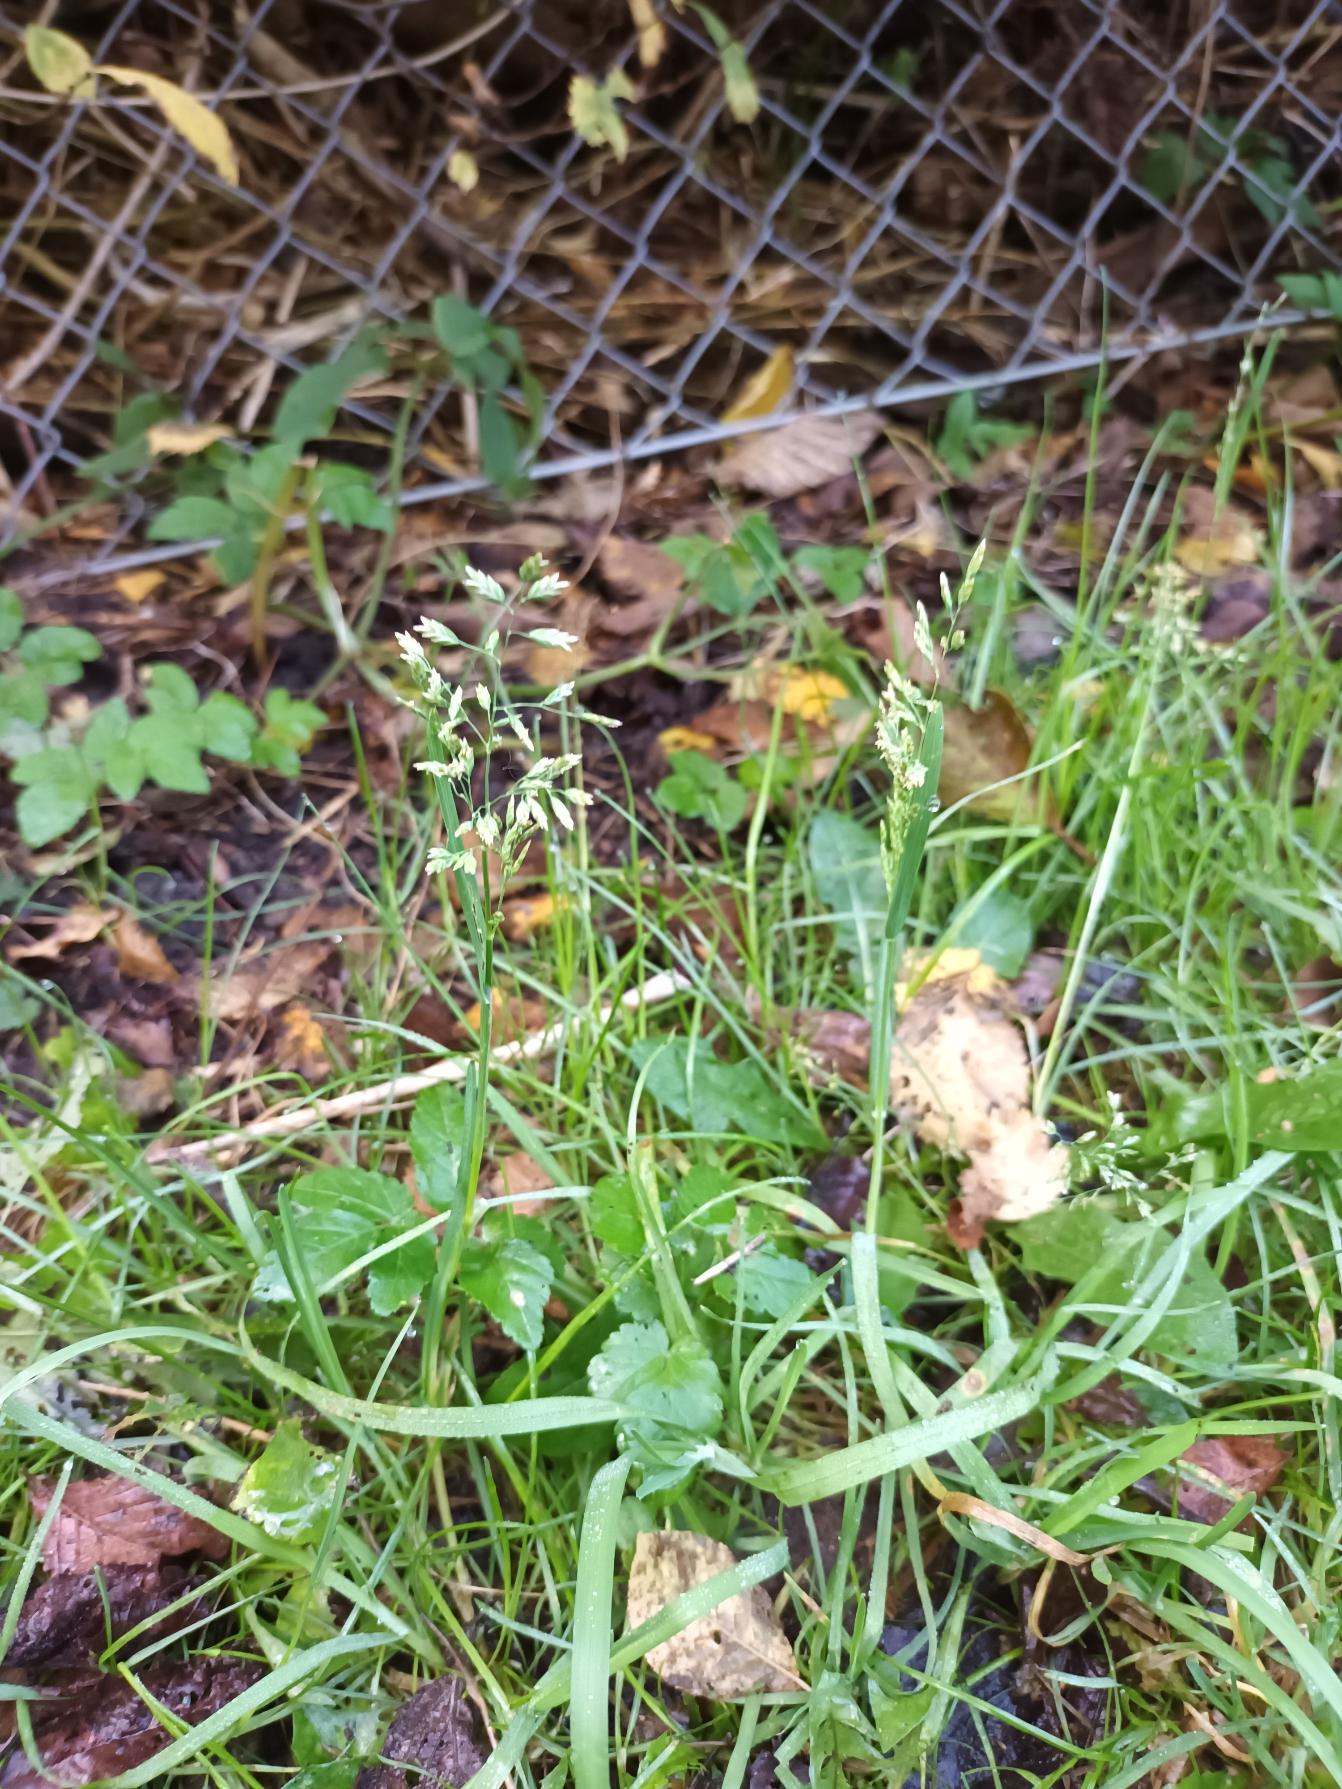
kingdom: Plantae
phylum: Tracheophyta
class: Liliopsida
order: Poales
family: Poaceae
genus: Poa
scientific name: Poa annua
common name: Enårig rapgræs
